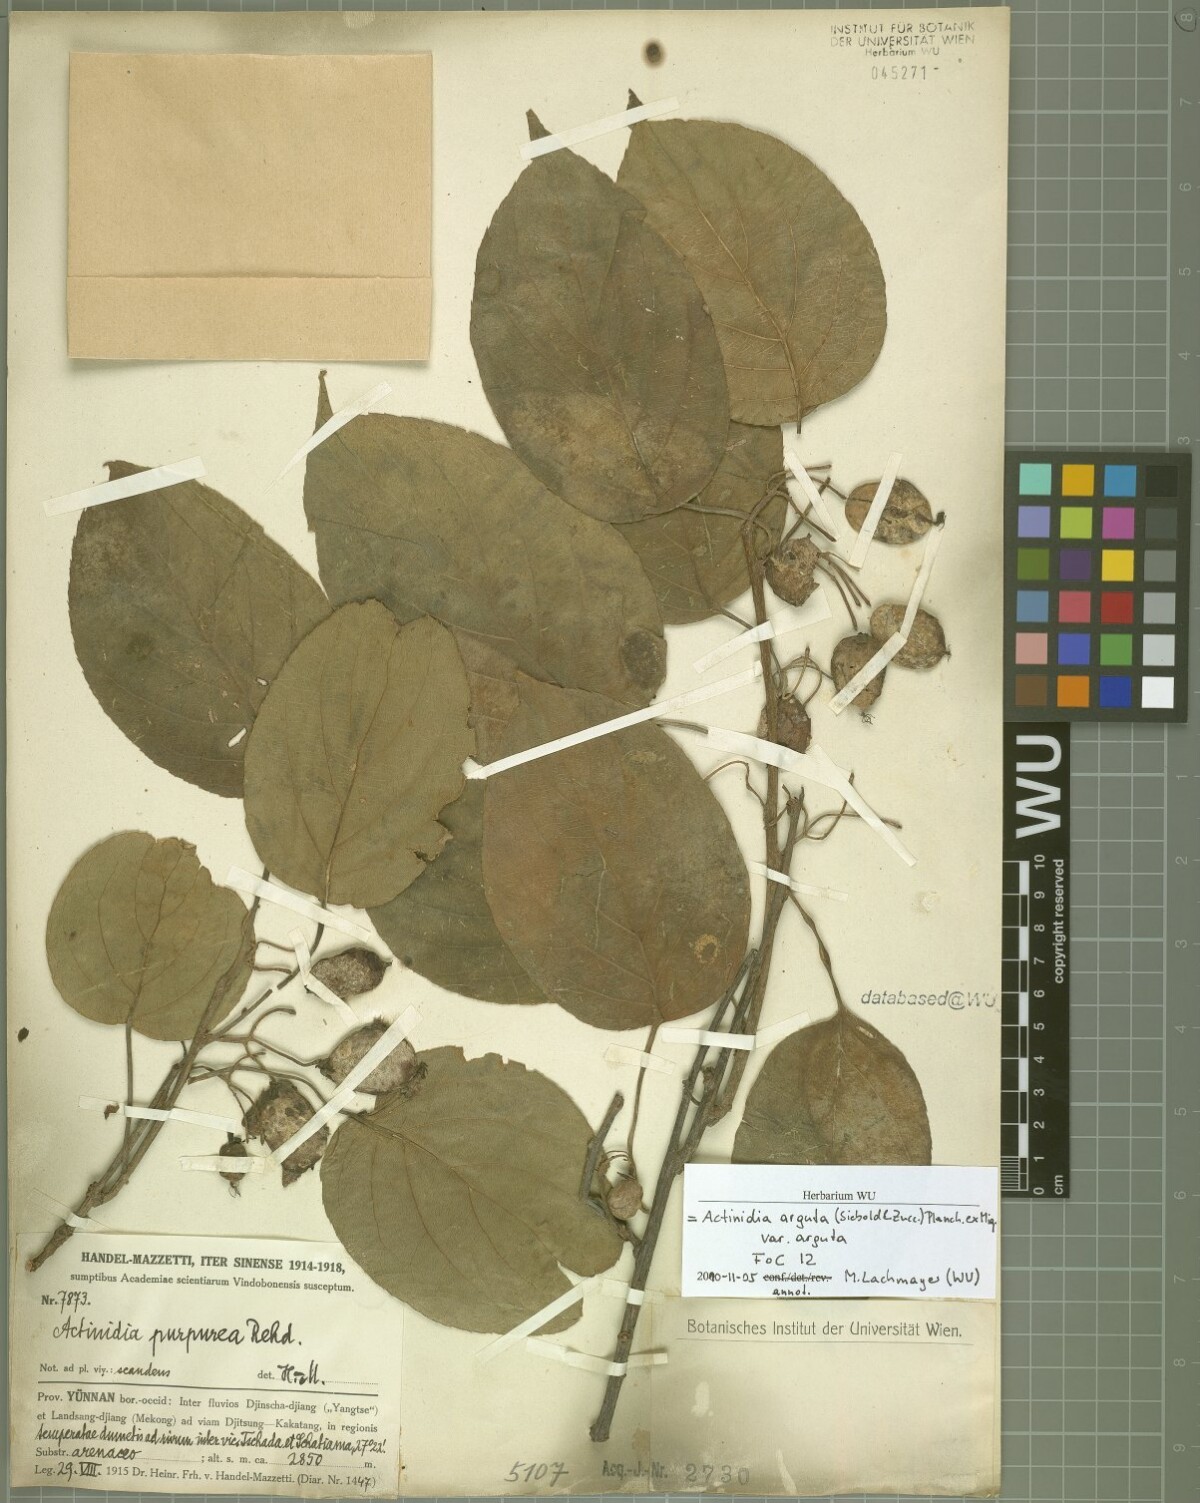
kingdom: Plantae
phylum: Tracheophyta
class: Magnoliopsida
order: Ericales
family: Actinidiaceae
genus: Actinidia
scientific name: Actinidia arguta
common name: Tara vine
